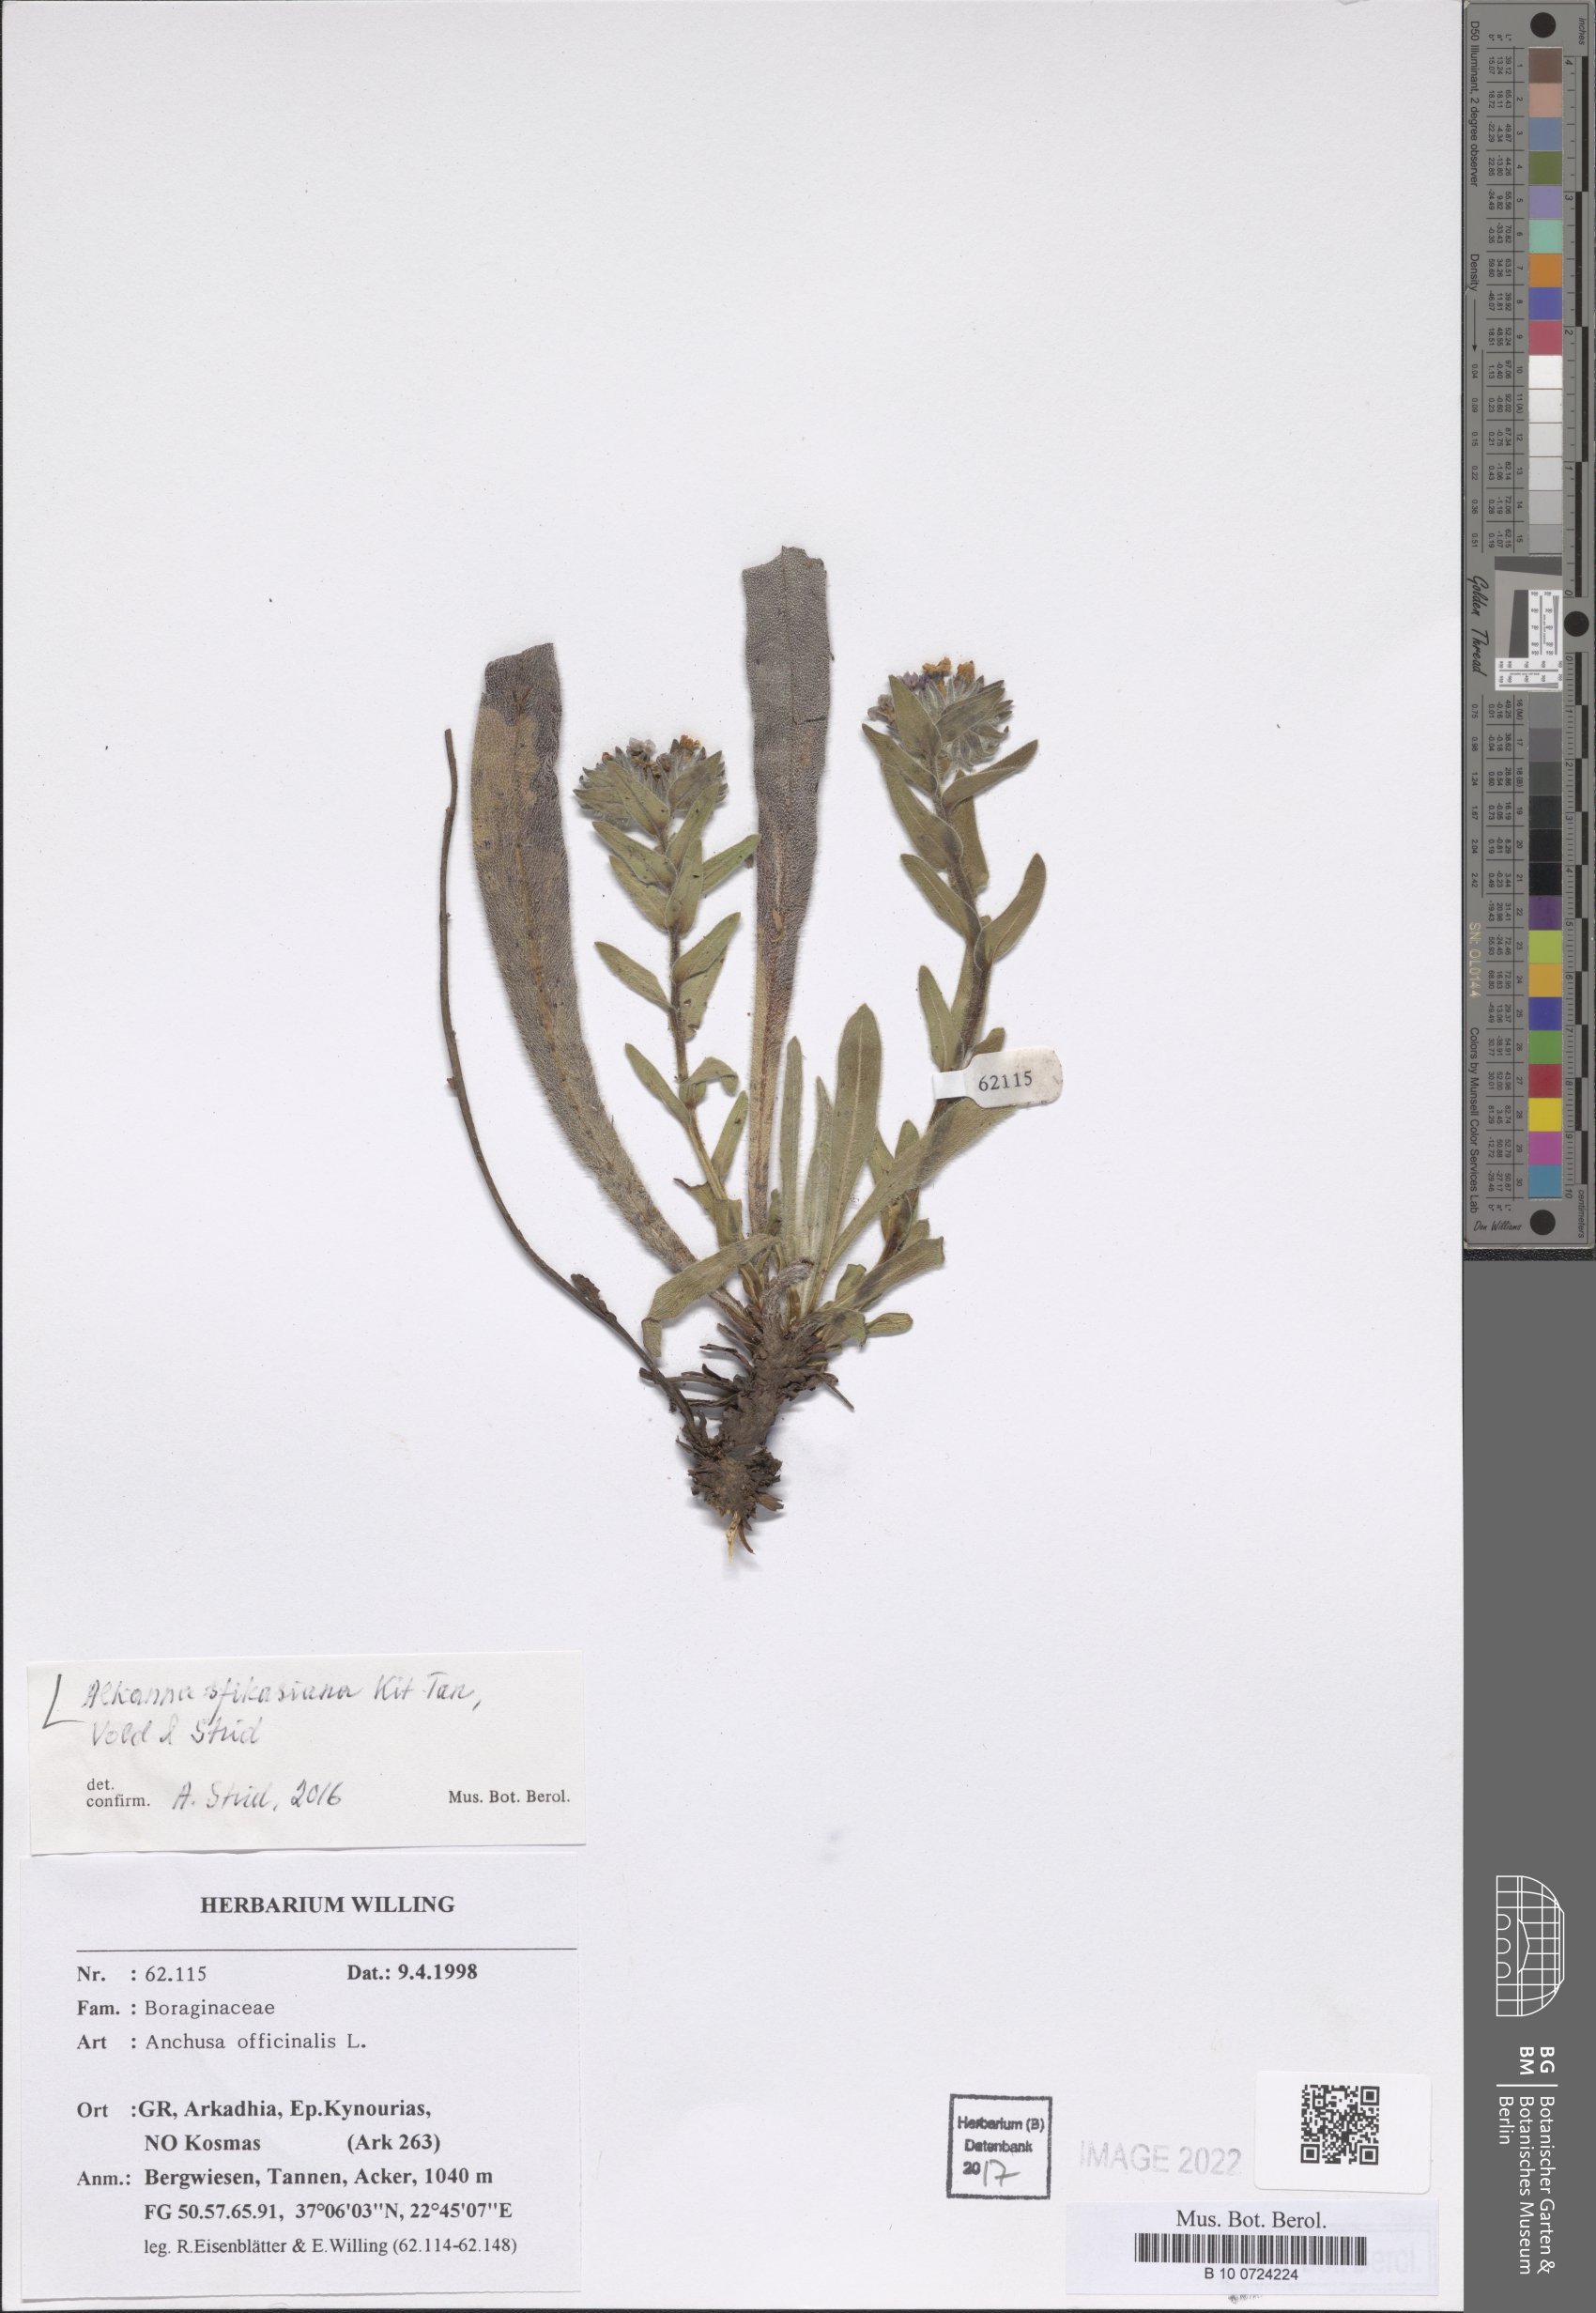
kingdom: Plantae
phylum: Tracheophyta
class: Magnoliopsida
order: Boraginales
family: Boraginaceae
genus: Alkanna
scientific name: Alkanna sfikasiana
